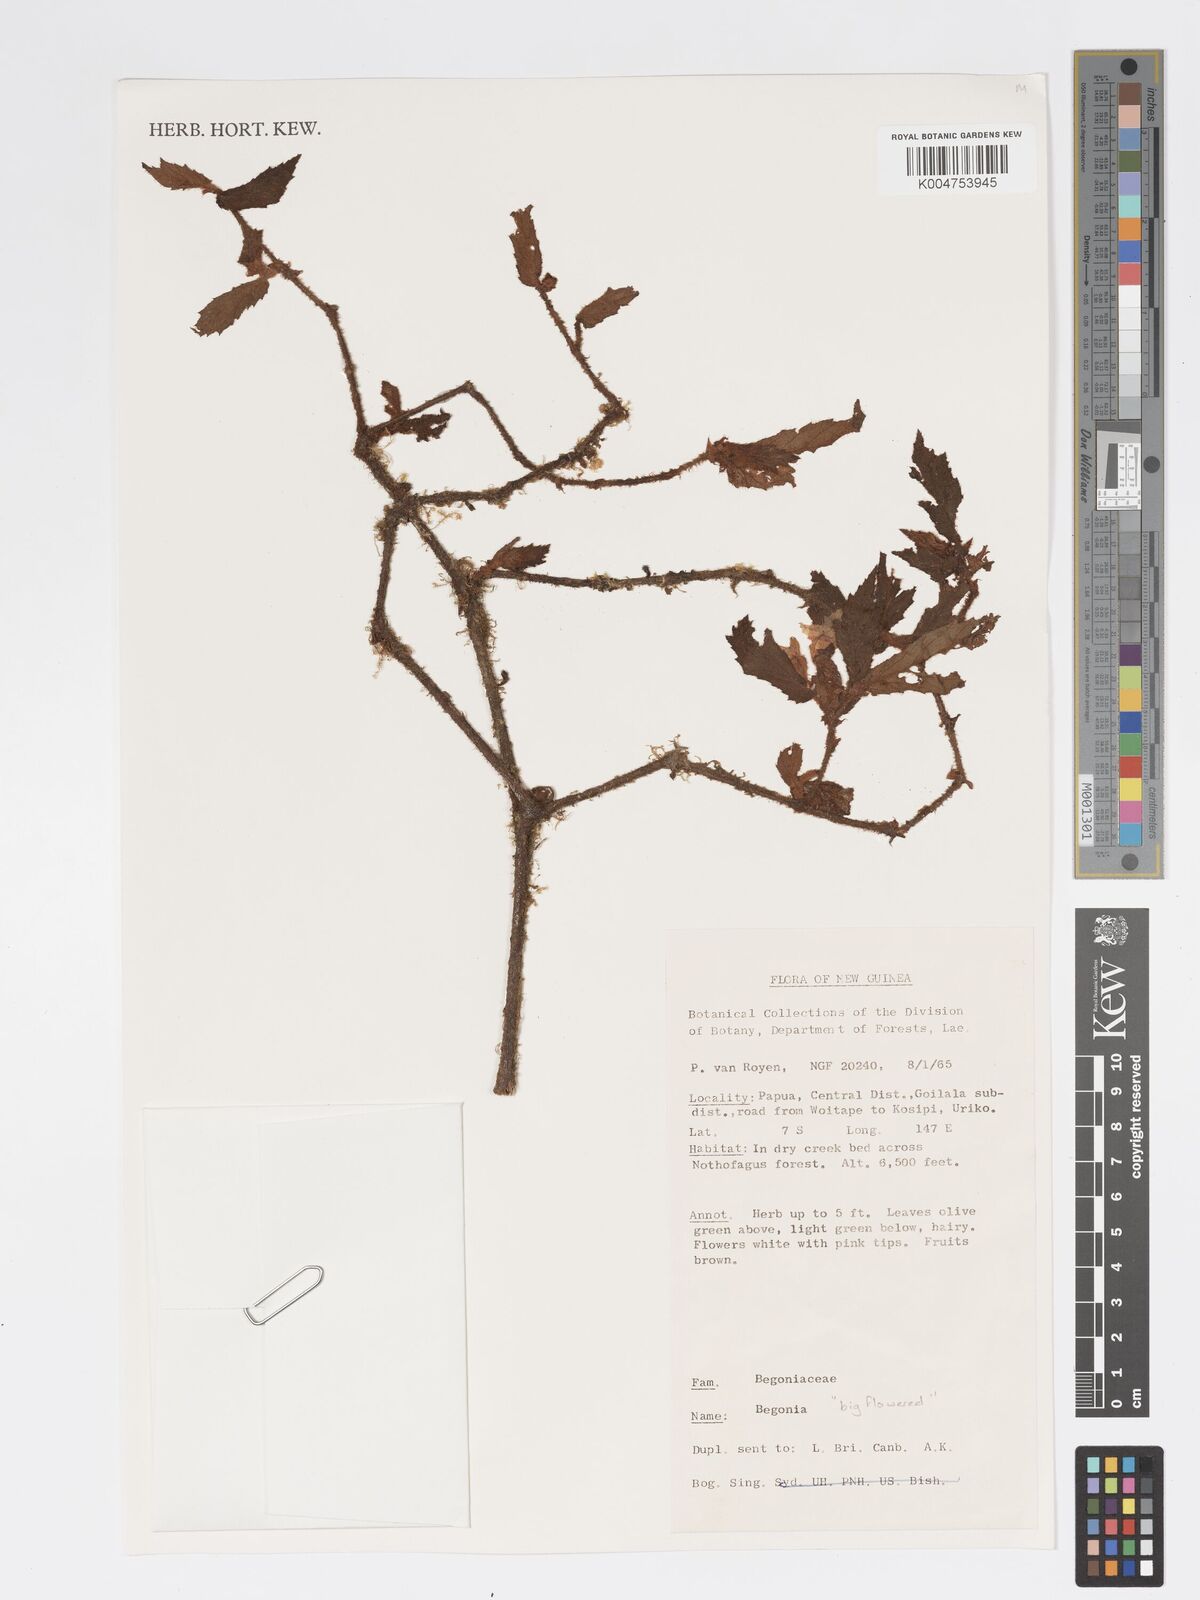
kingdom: Plantae
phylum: Tracheophyta
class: Magnoliopsida
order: Cucurbitales
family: Begoniaceae
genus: Begonia
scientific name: Begonia
